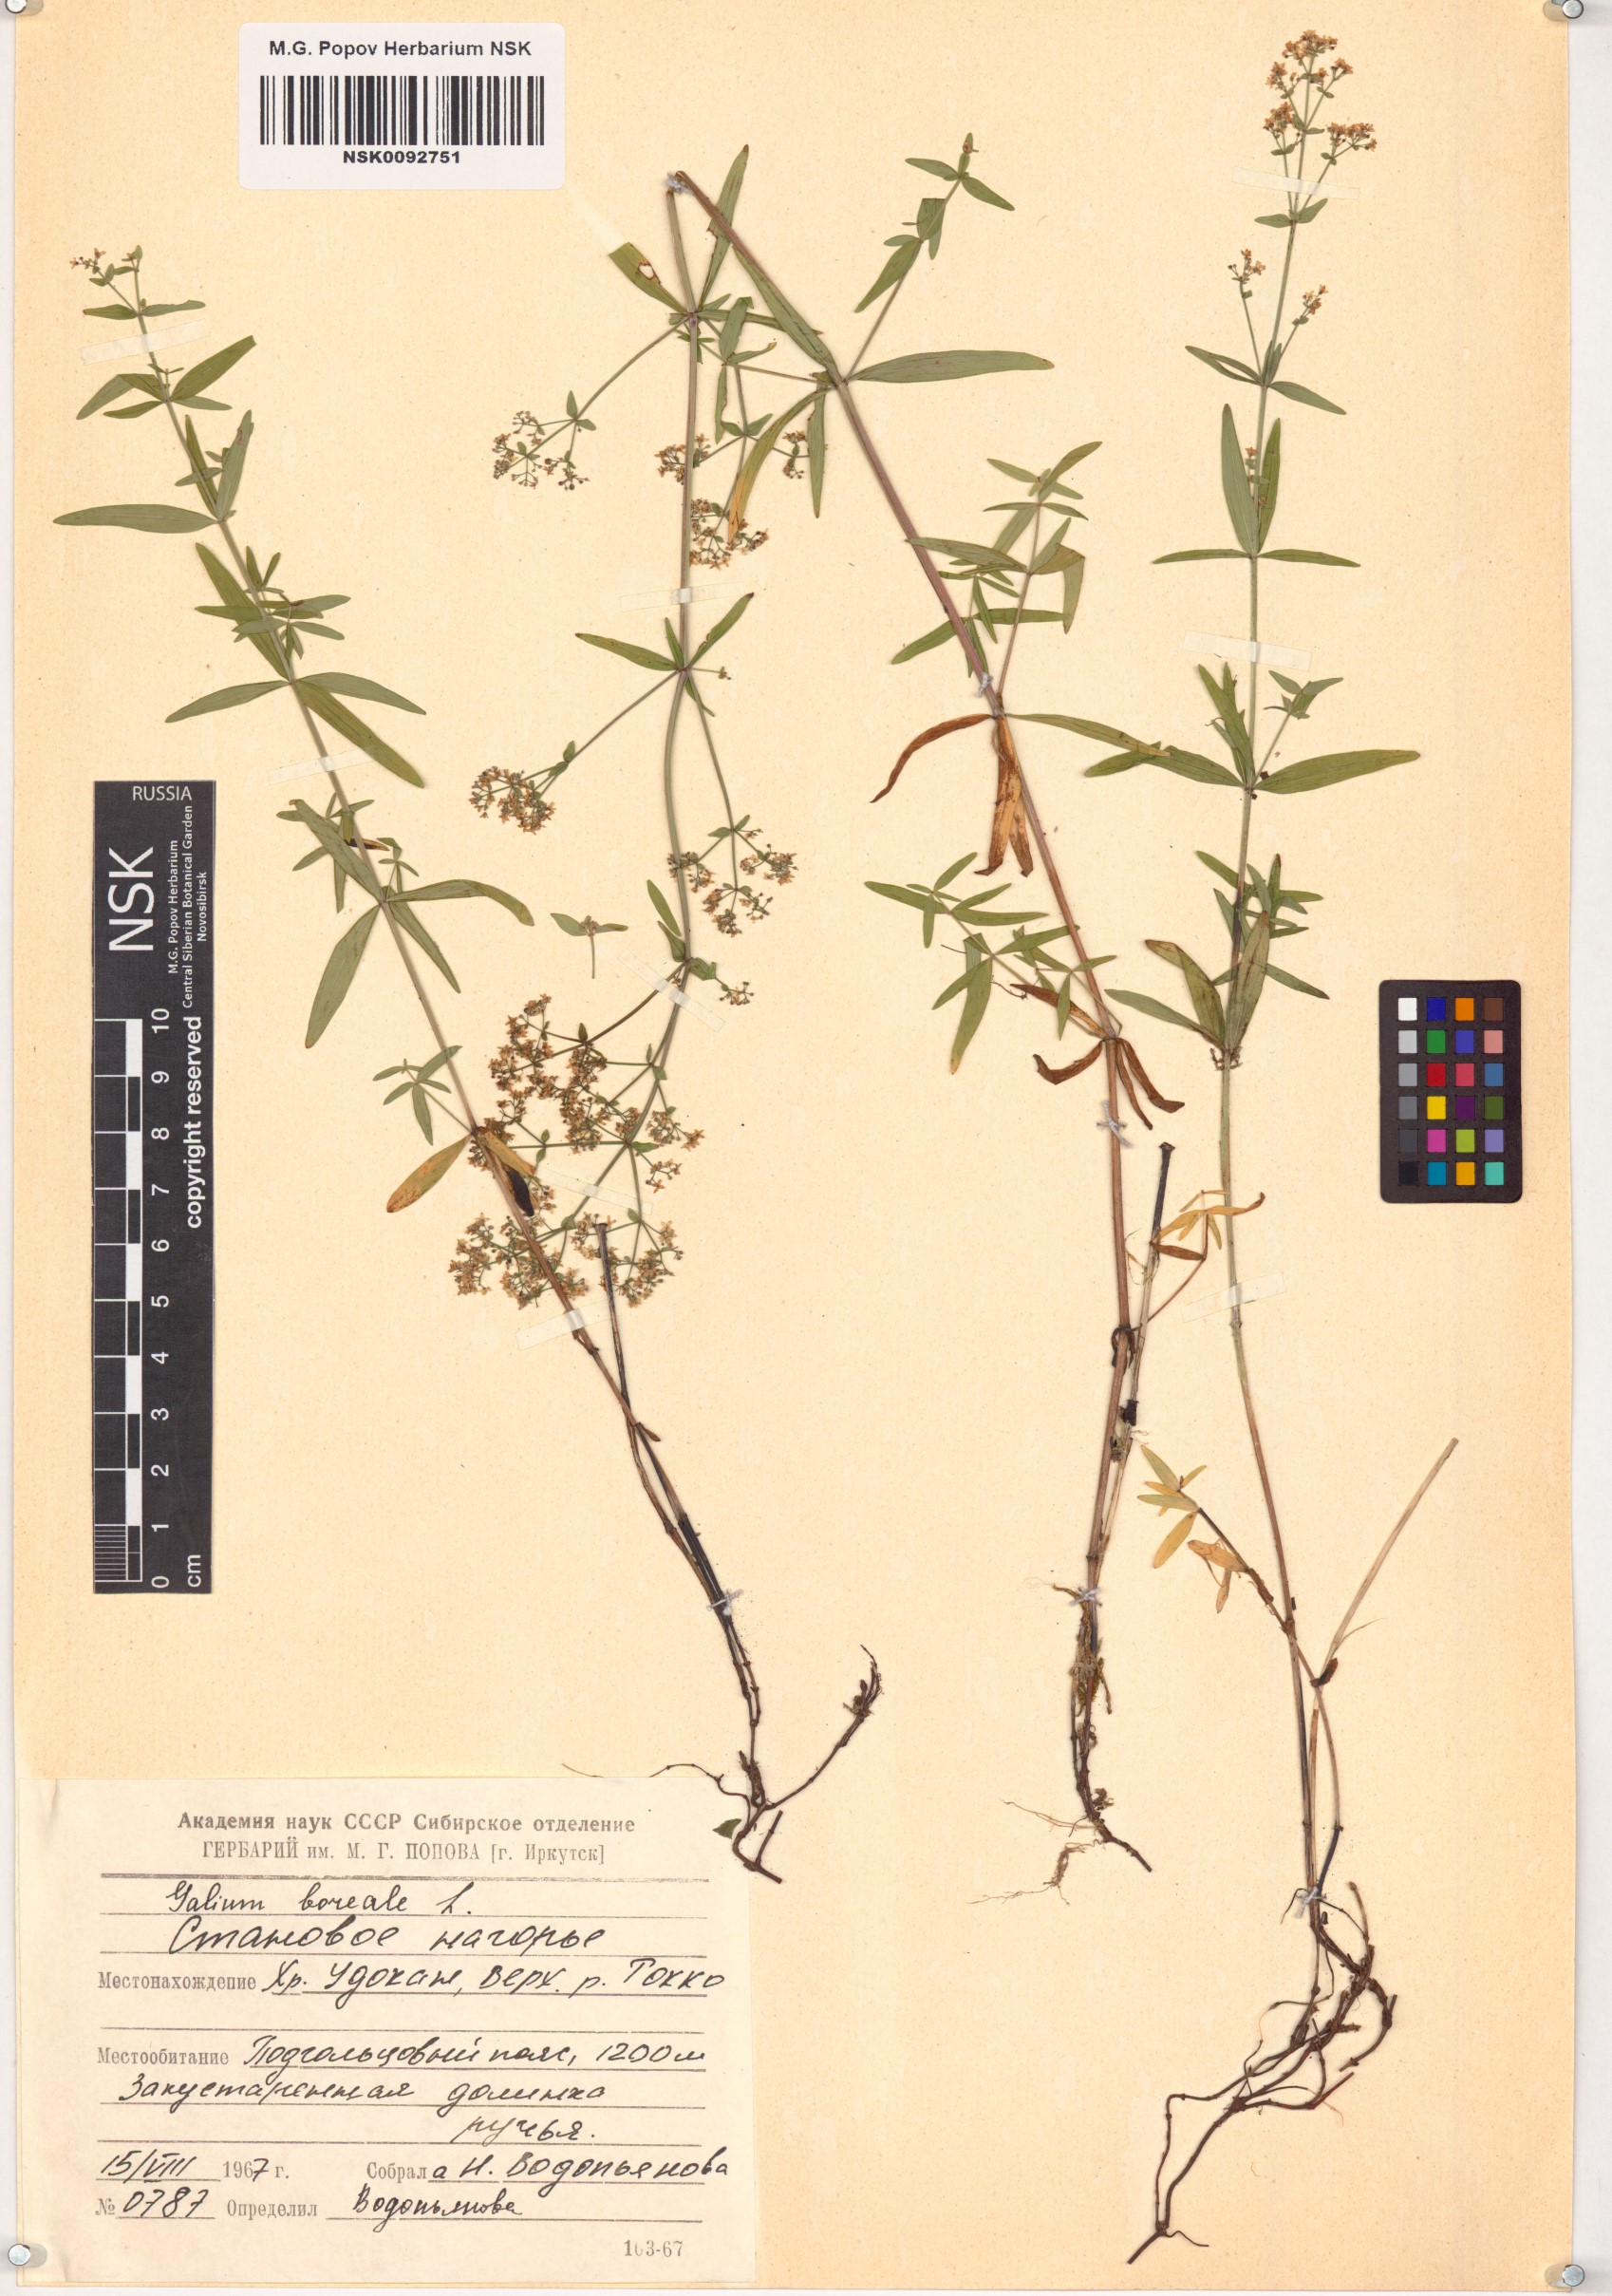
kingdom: Plantae
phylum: Tracheophyta
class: Magnoliopsida
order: Gentianales
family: Rubiaceae
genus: Galium
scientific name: Galium boreale
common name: Northern bedstraw
